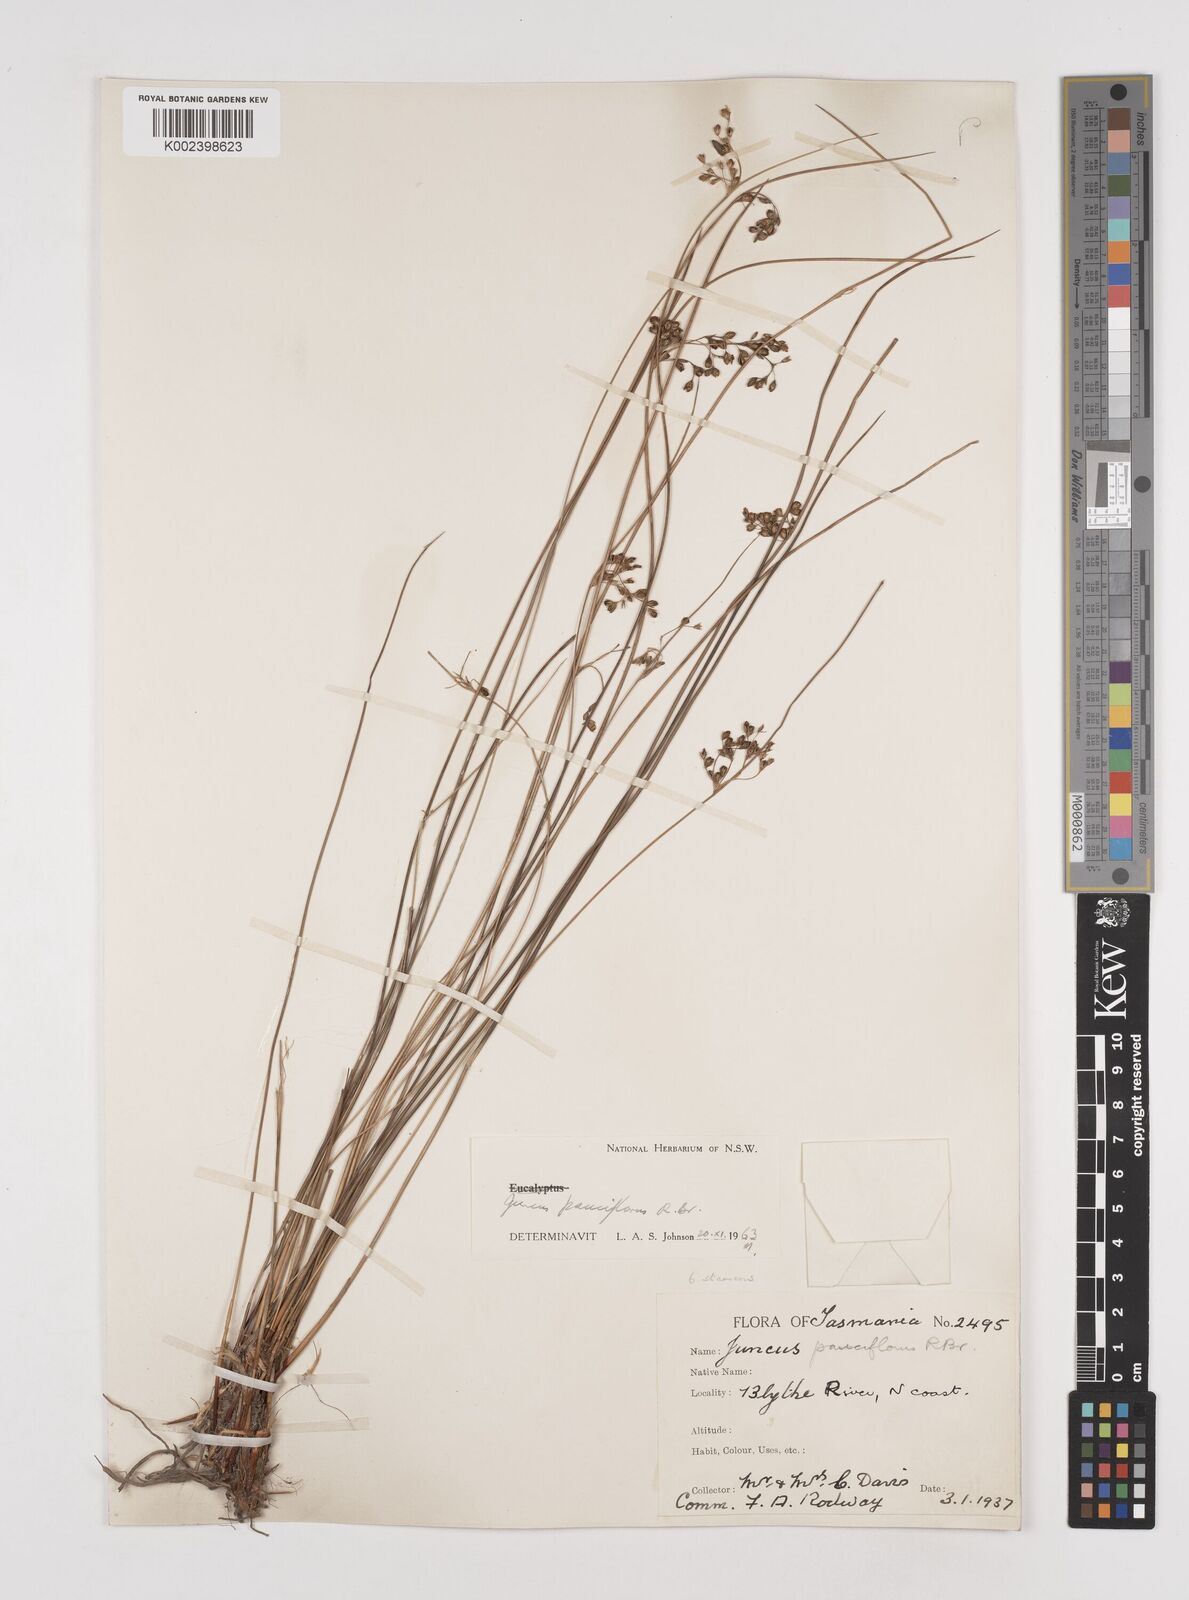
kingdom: Plantae
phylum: Tracheophyta
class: Liliopsida
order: Poales
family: Juncaceae
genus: Juncus
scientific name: Juncus pauciflorus
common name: Loose-flowered rush
